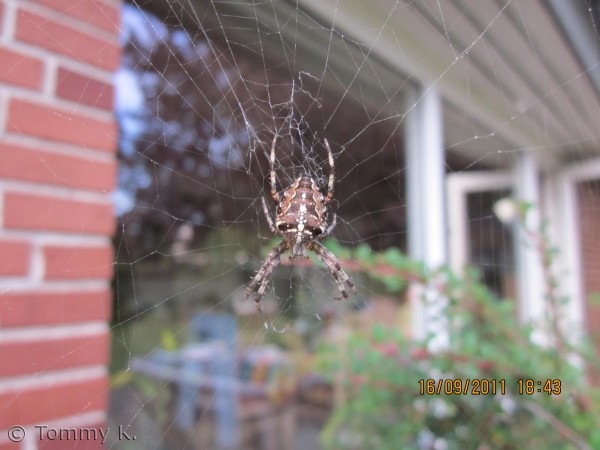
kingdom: Animalia
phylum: Arthropoda
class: Arachnida
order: Araneae
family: Araneidae
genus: Araneus
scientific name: Araneus diadematus
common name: Korsedderkop
